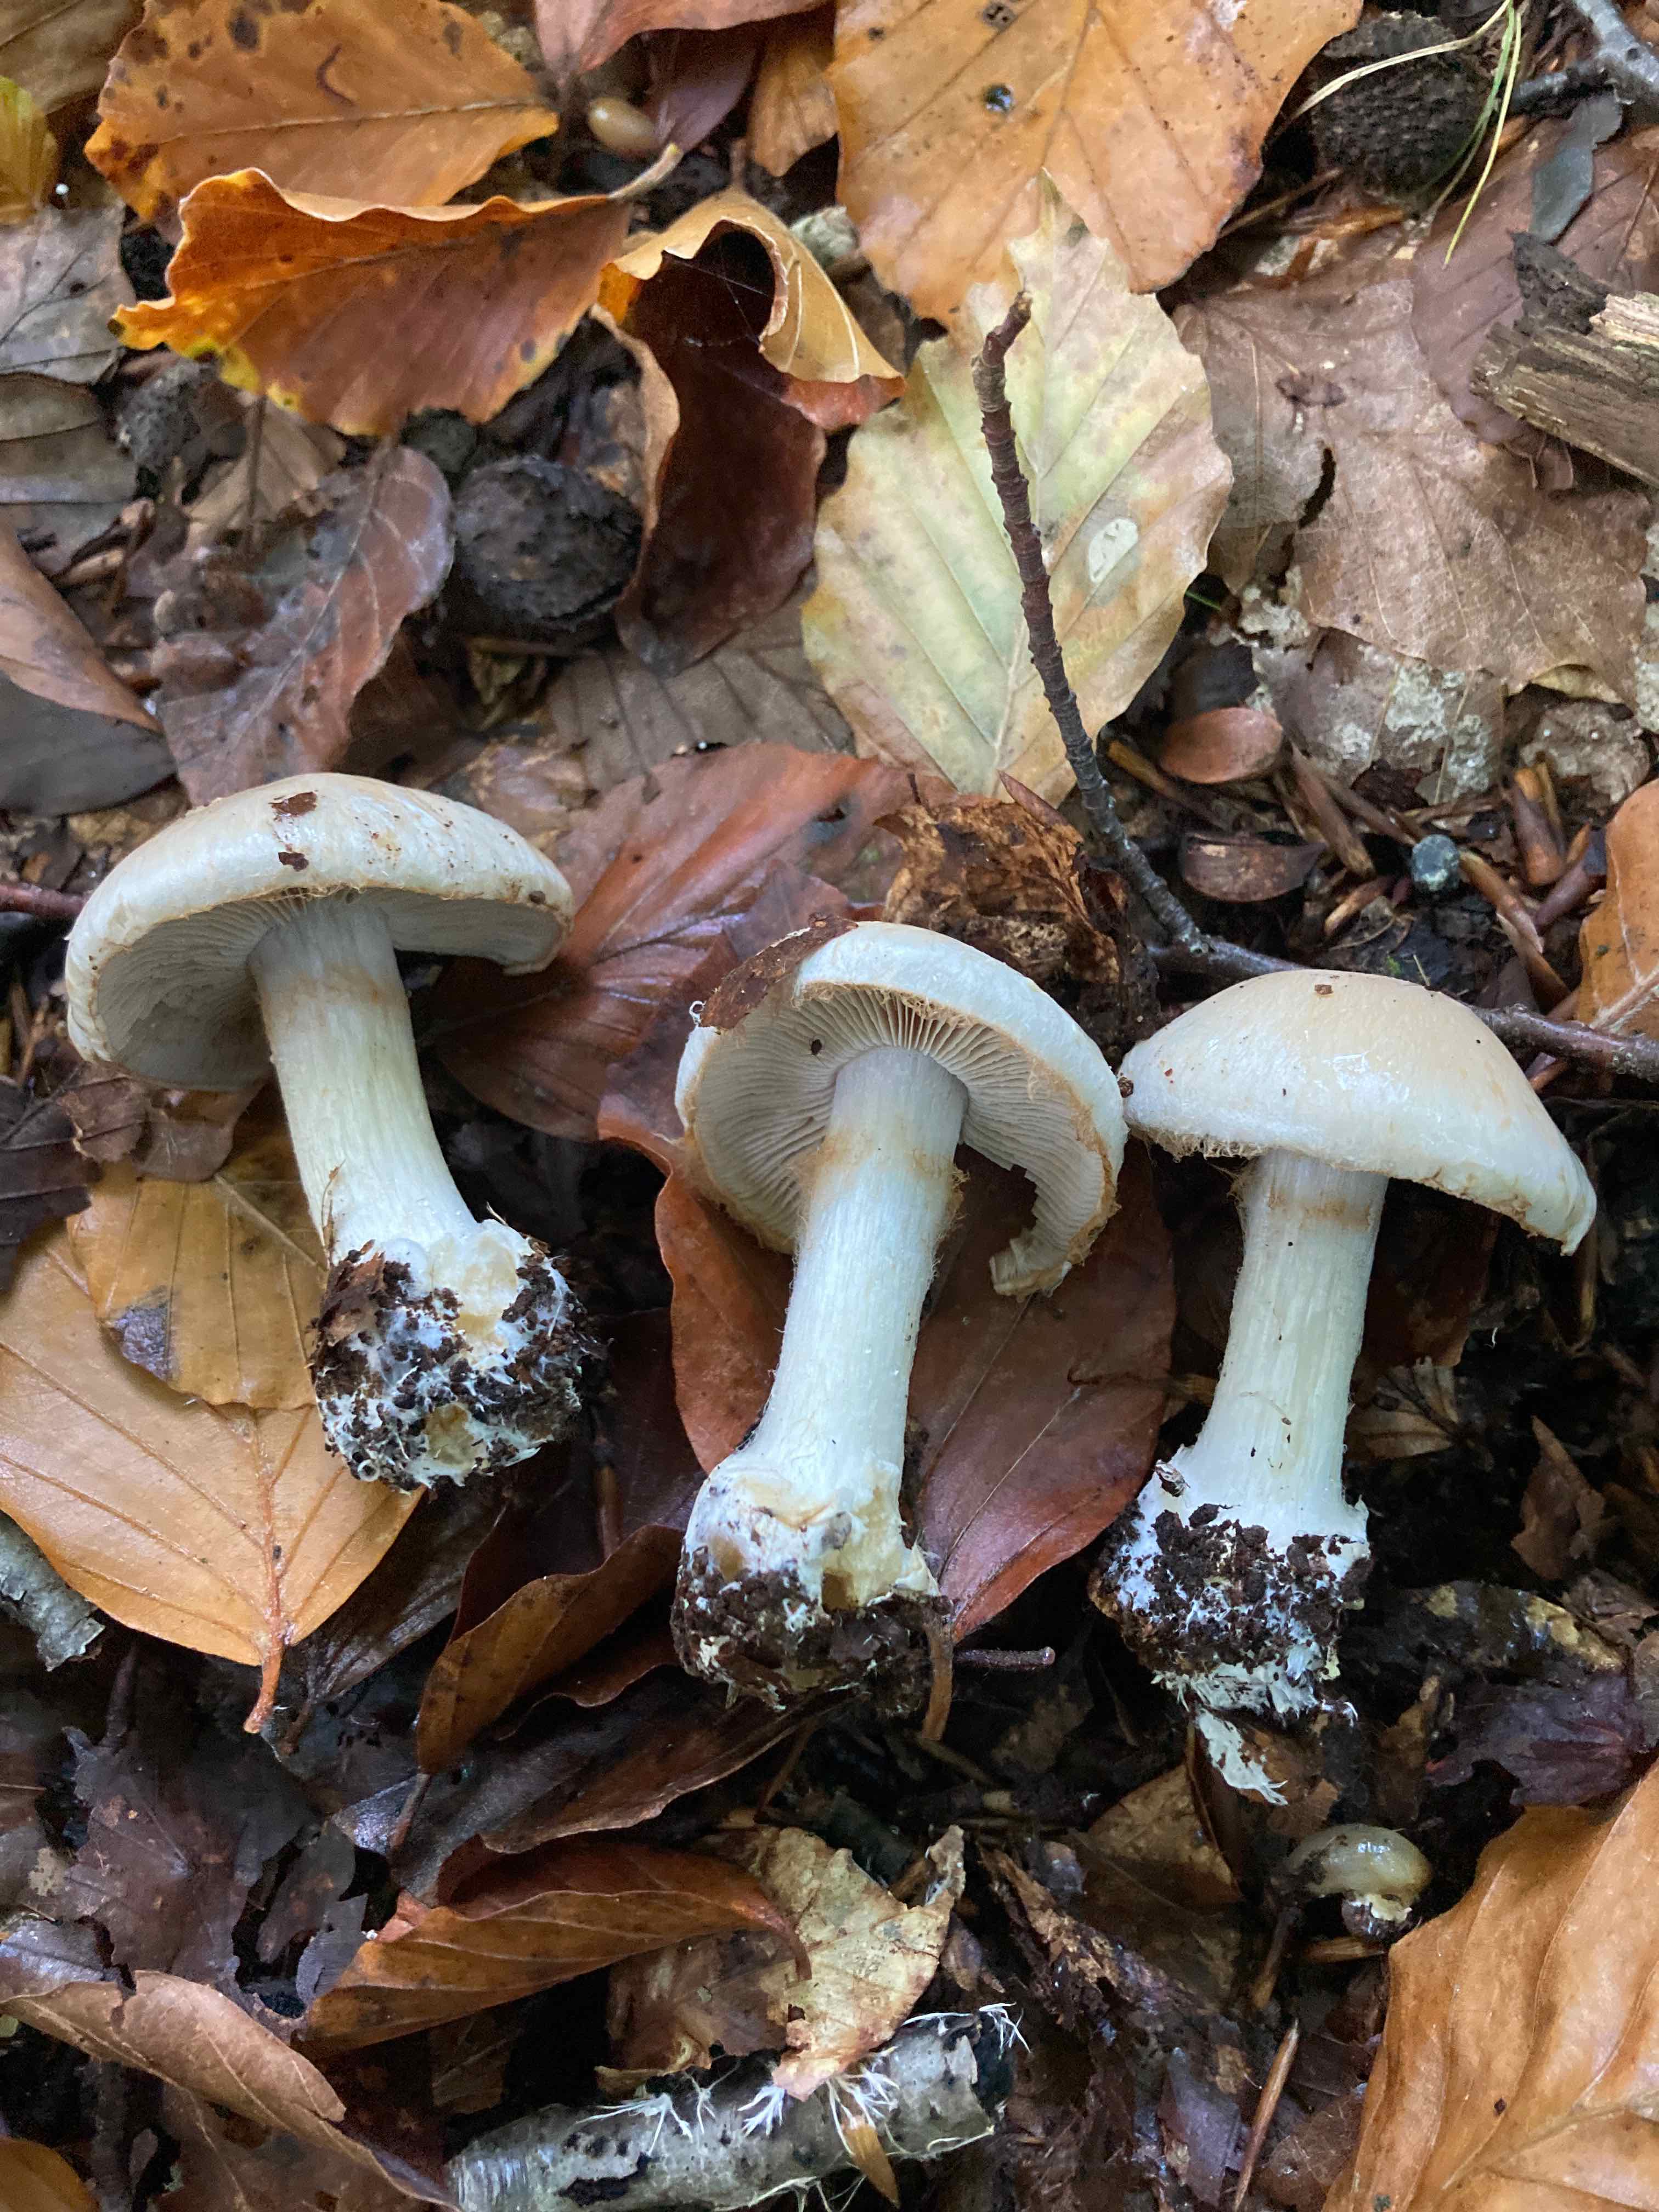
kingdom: Fungi
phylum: Basidiomycota
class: Agaricomycetes
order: Agaricales
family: Cortinariaceae
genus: Cortinarius
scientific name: Cortinarius caesiostramineus
